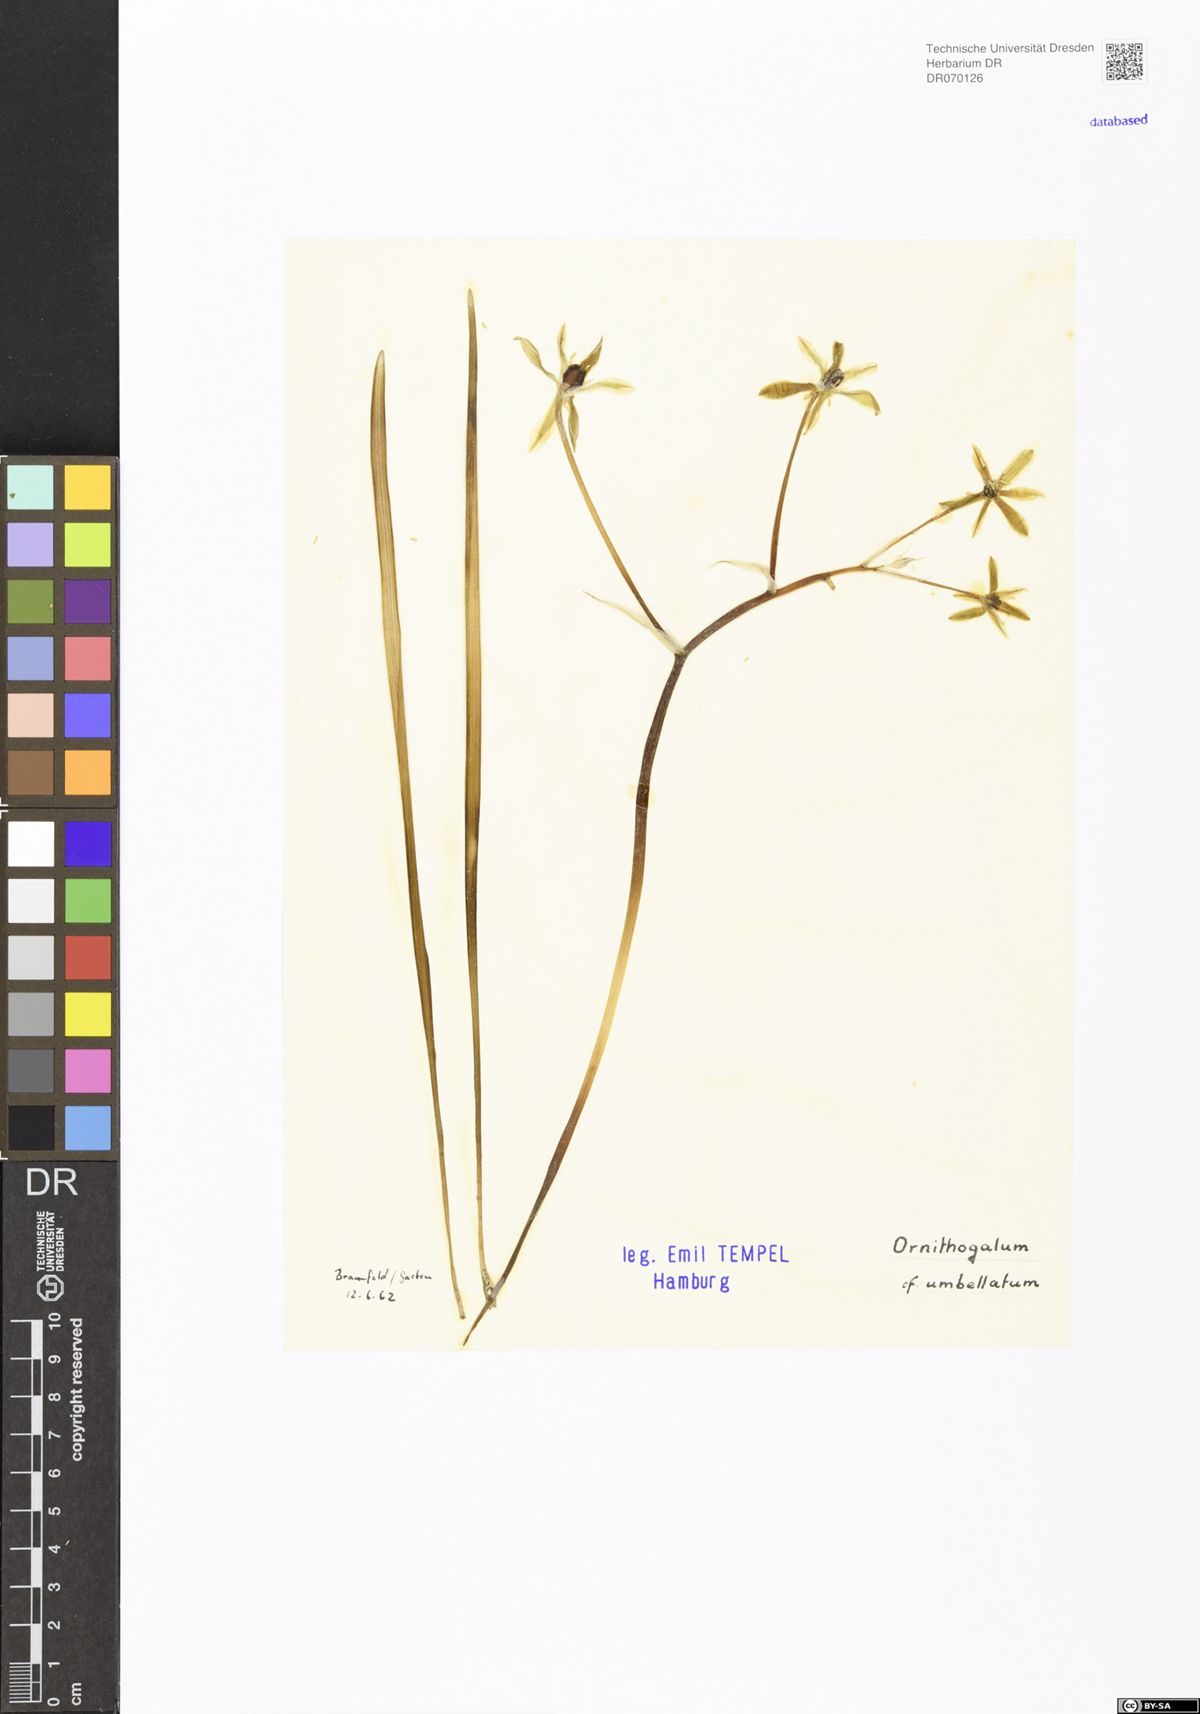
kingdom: Plantae
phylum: Tracheophyta
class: Liliopsida
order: Asparagales
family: Asparagaceae
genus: Ornithogalum
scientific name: Ornithogalum umbellatum
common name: Garden star-of-bethlehem
